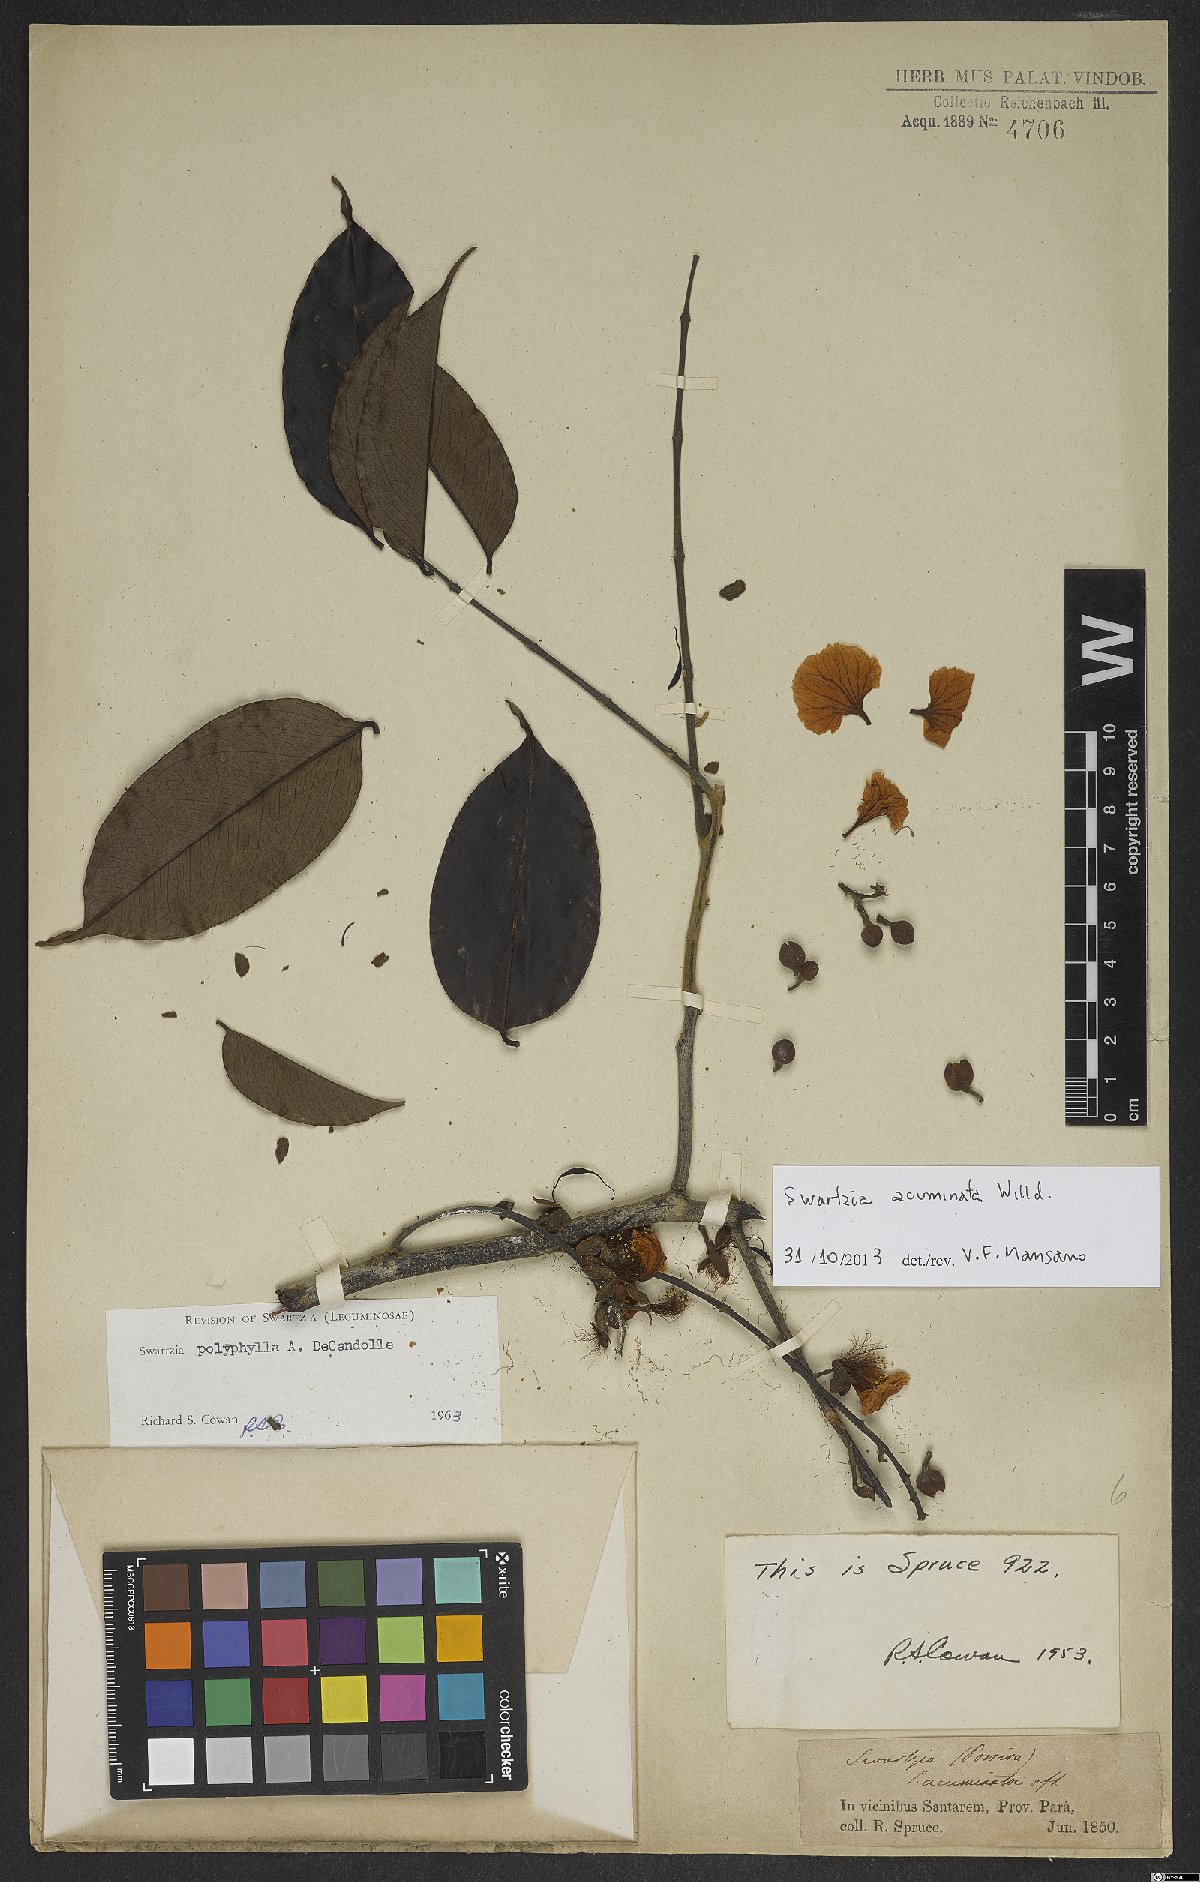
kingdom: Plantae
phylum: Tracheophyta
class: Magnoliopsida
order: Fabales
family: Fabaceae
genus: Swartzia
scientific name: Swartzia acuminata
